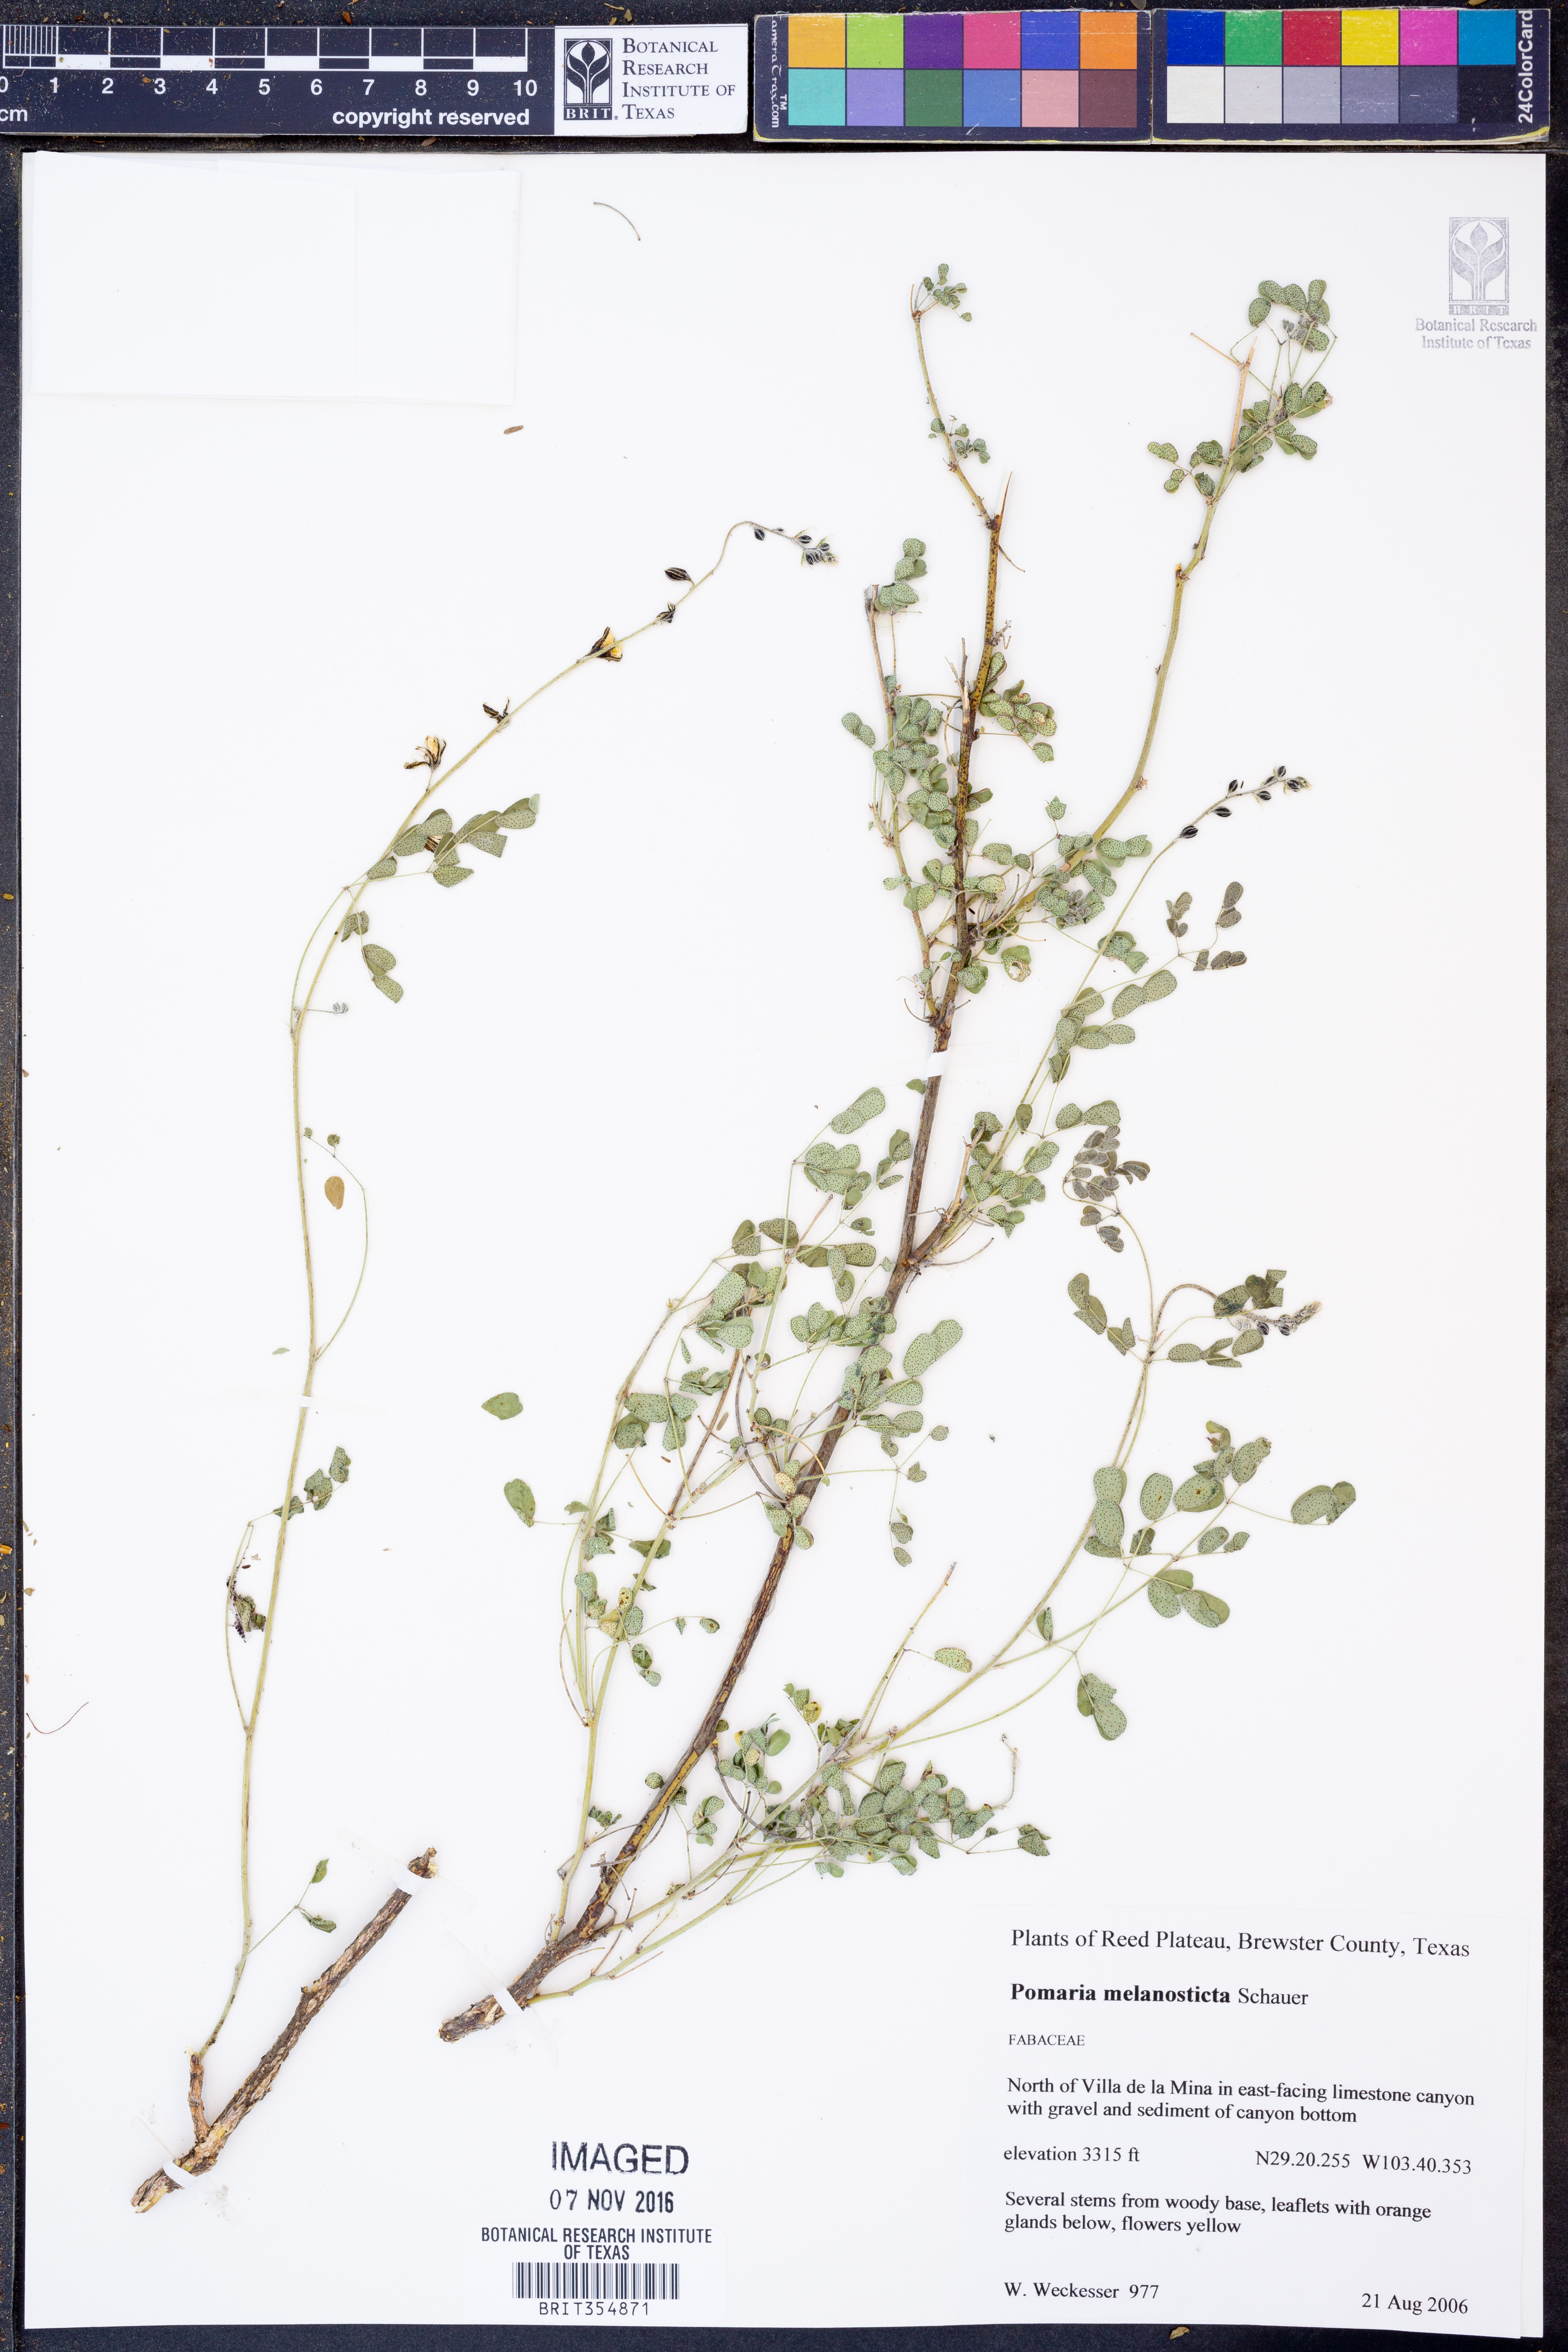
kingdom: Plantae
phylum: Tracheophyta
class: Magnoliopsida
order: Fabales
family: Fabaceae
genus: Pomaria
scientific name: Pomaria melanosticta
